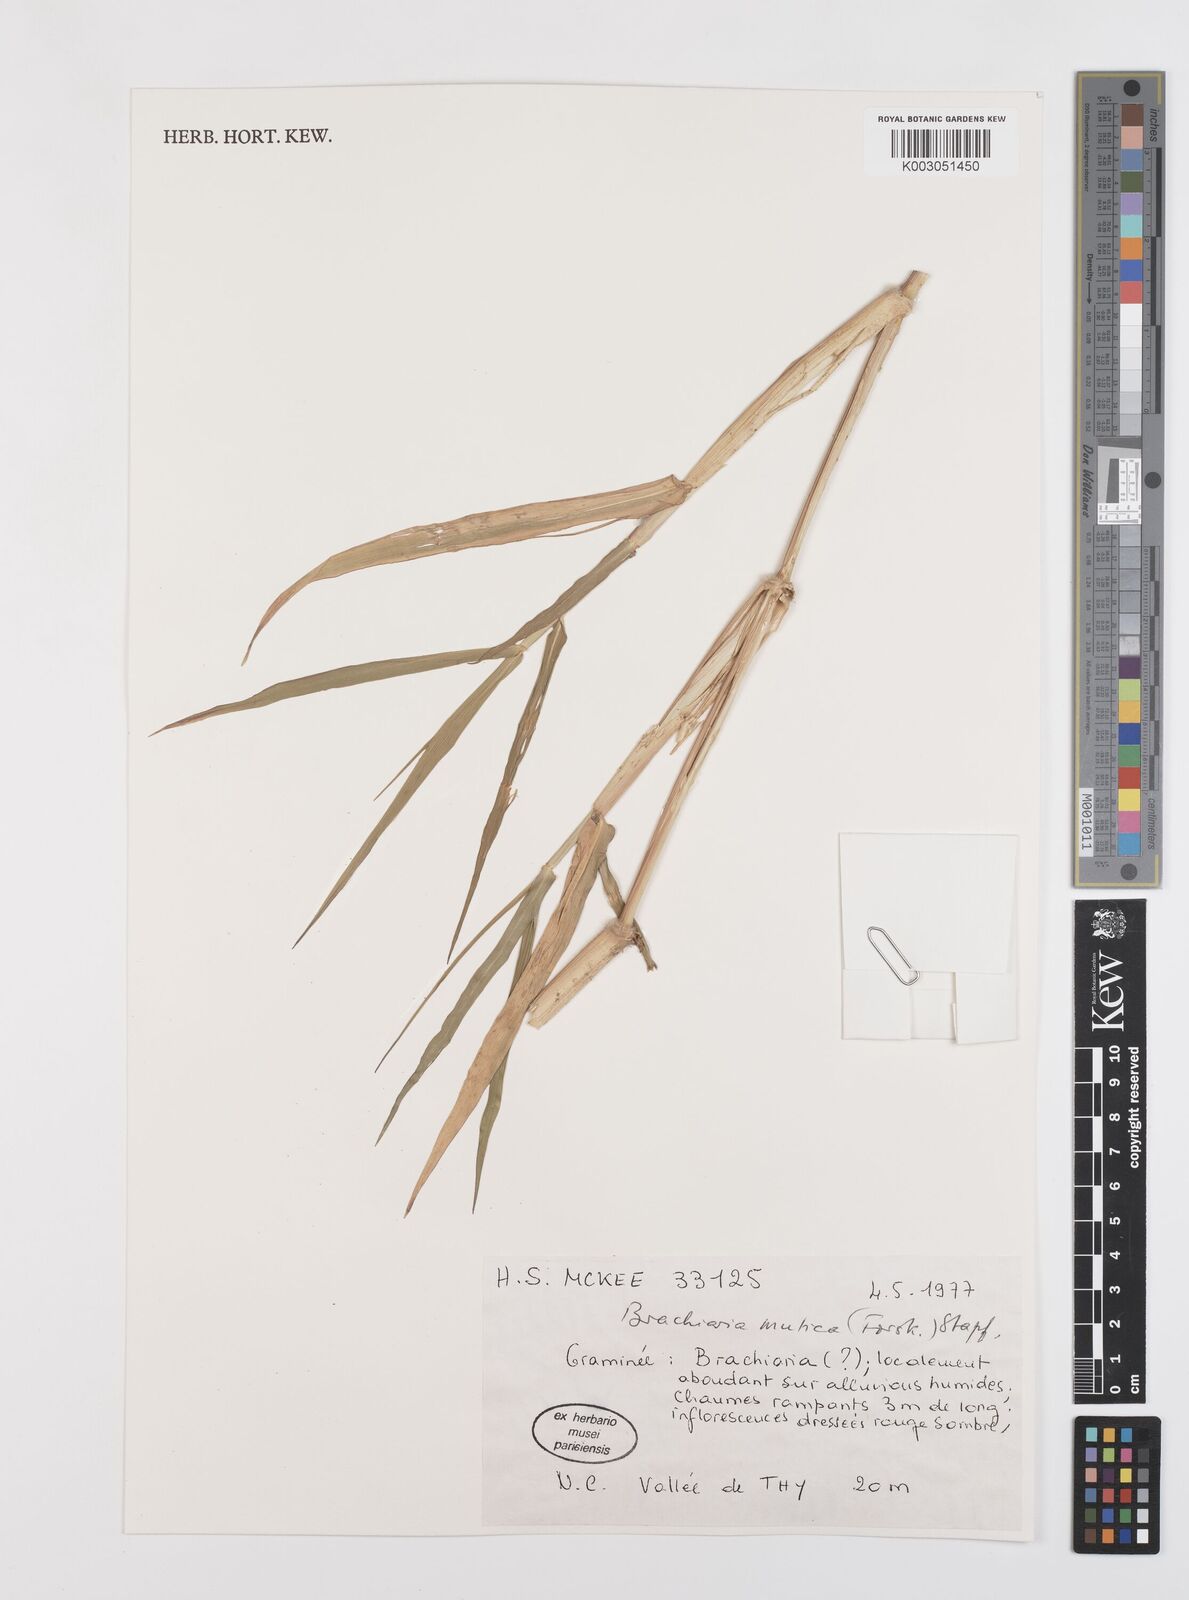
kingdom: Plantae
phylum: Tracheophyta
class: Liliopsida
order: Poales
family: Poaceae
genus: Urochloa
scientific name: Urochloa mutica
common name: Para grass
